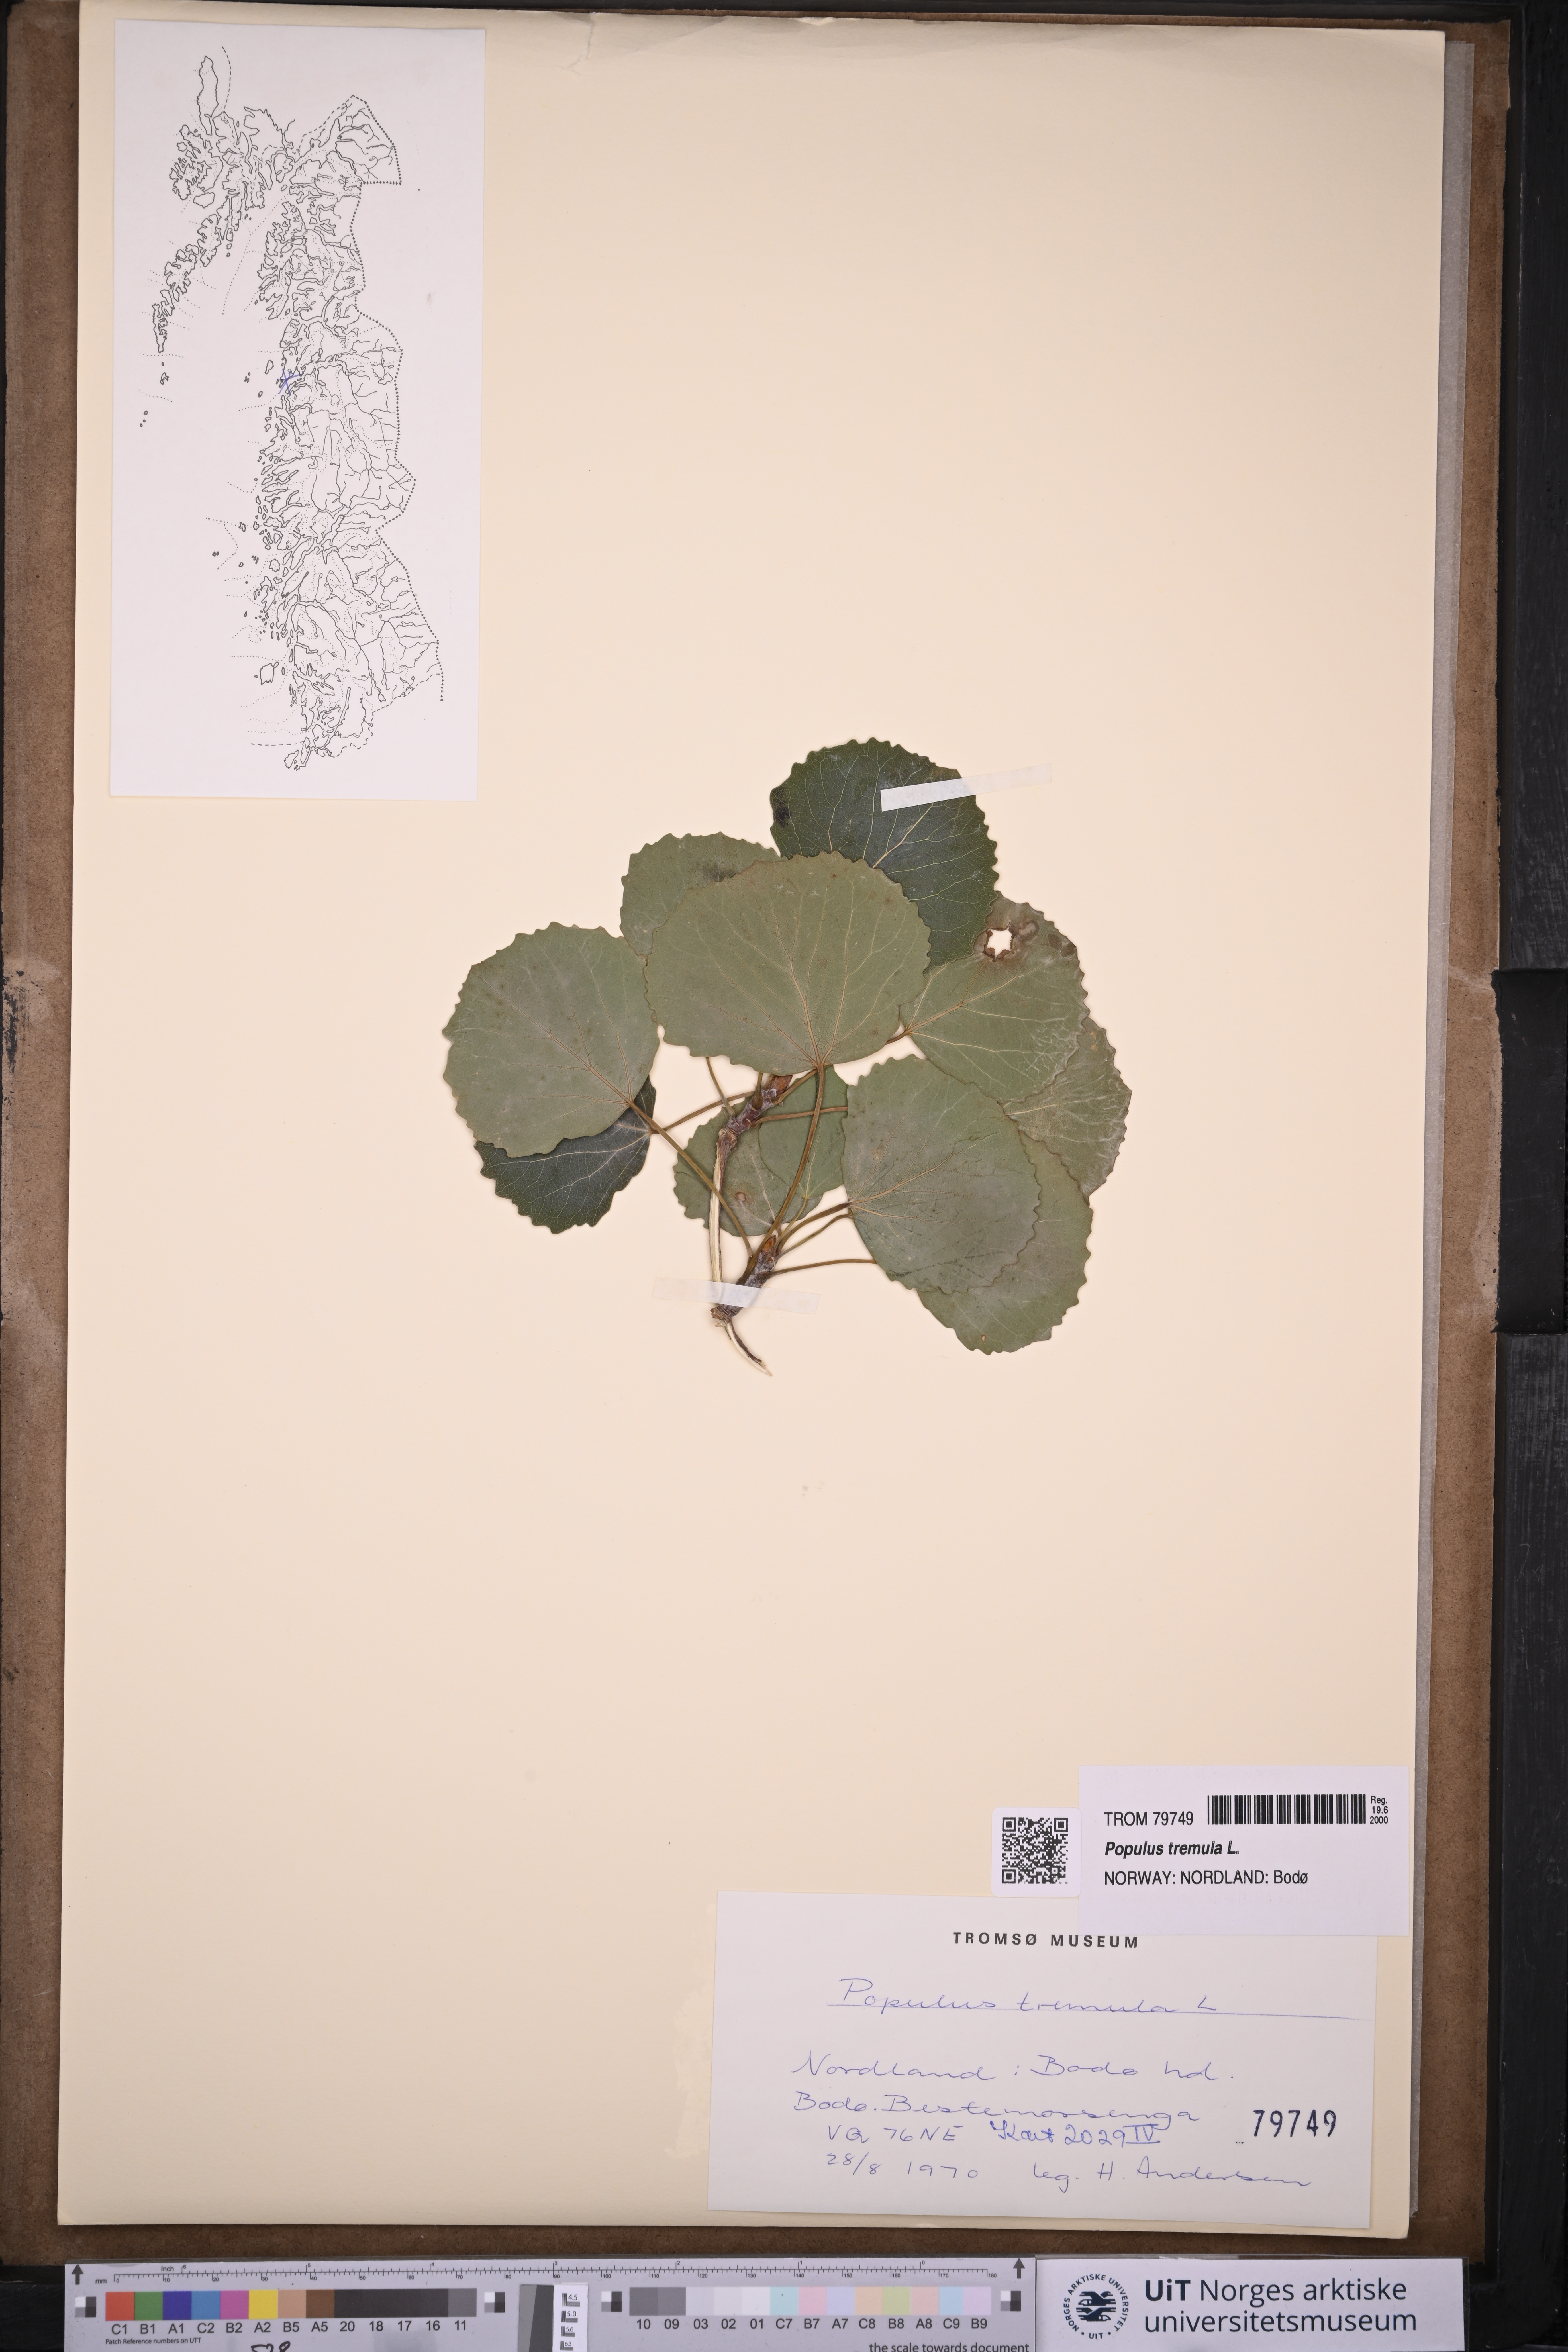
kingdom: Plantae
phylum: Tracheophyta
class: Magnoliopsida
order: Malpighiales
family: Salicaceae
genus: Populus
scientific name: Populus tremula
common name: European aspen
